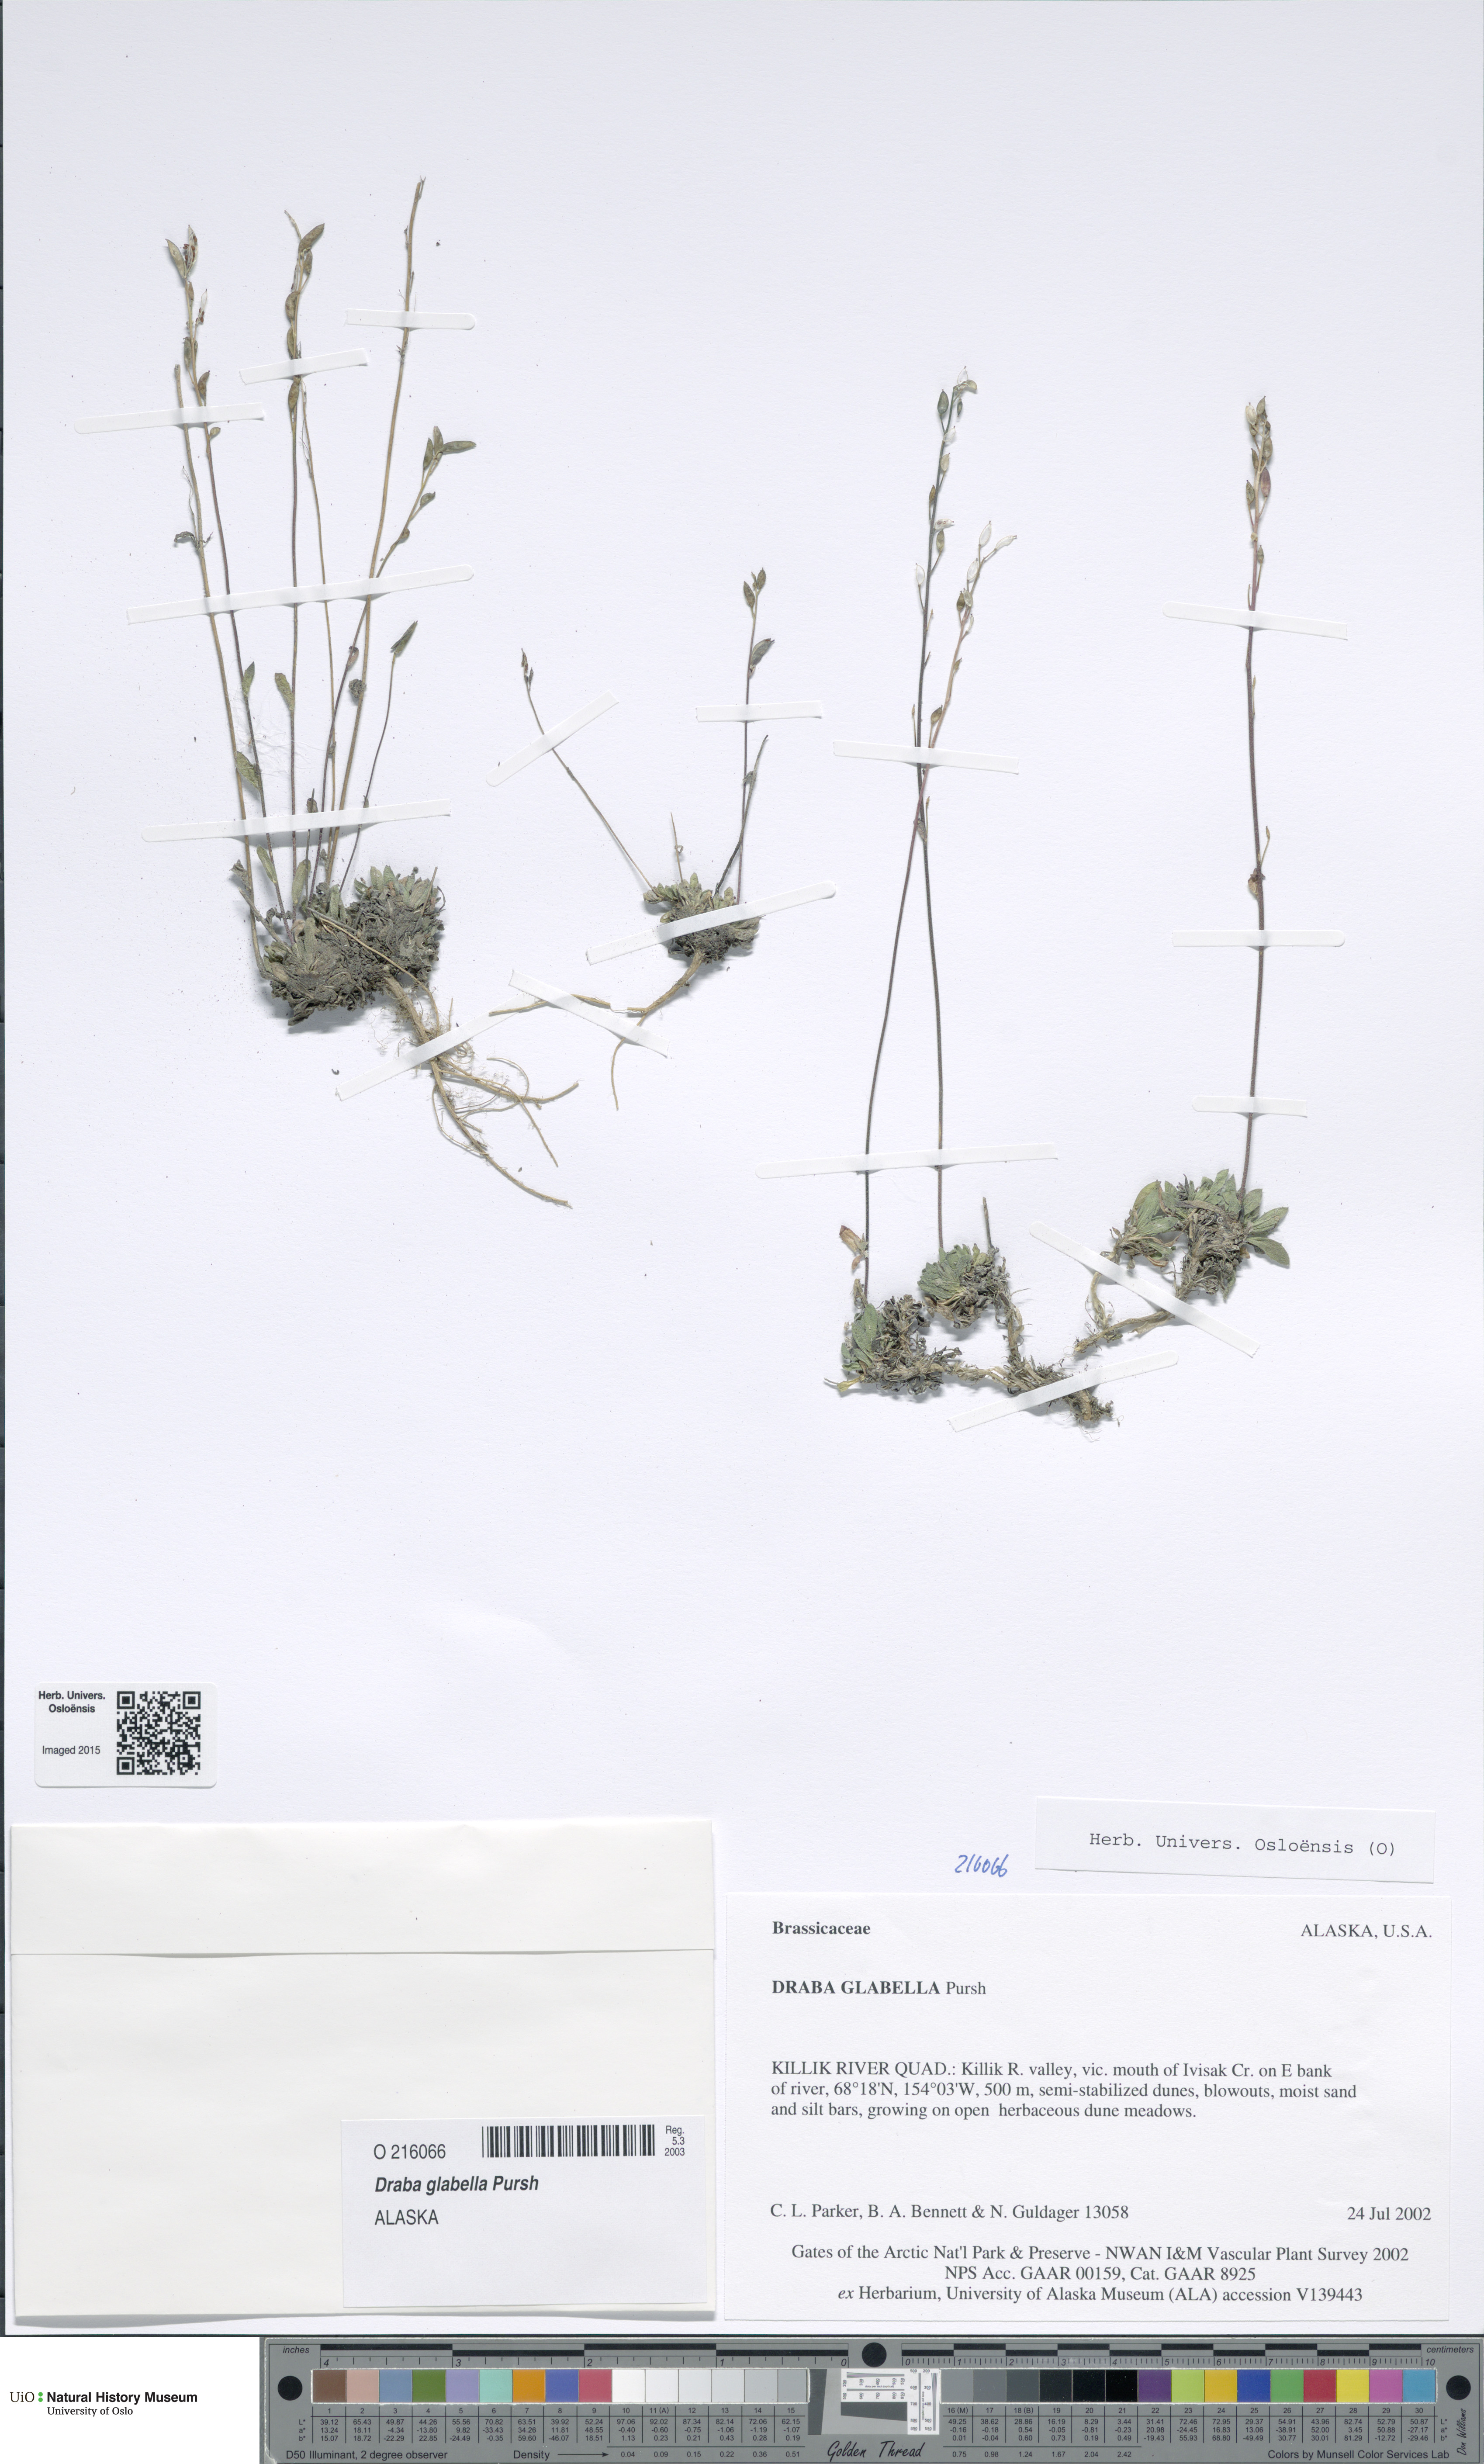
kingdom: Plantae
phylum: Tracheophyta
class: Magnoliopsida
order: Brassicales
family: Brassicaceae
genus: Draba
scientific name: Draba glabella
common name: Glaucous draba
